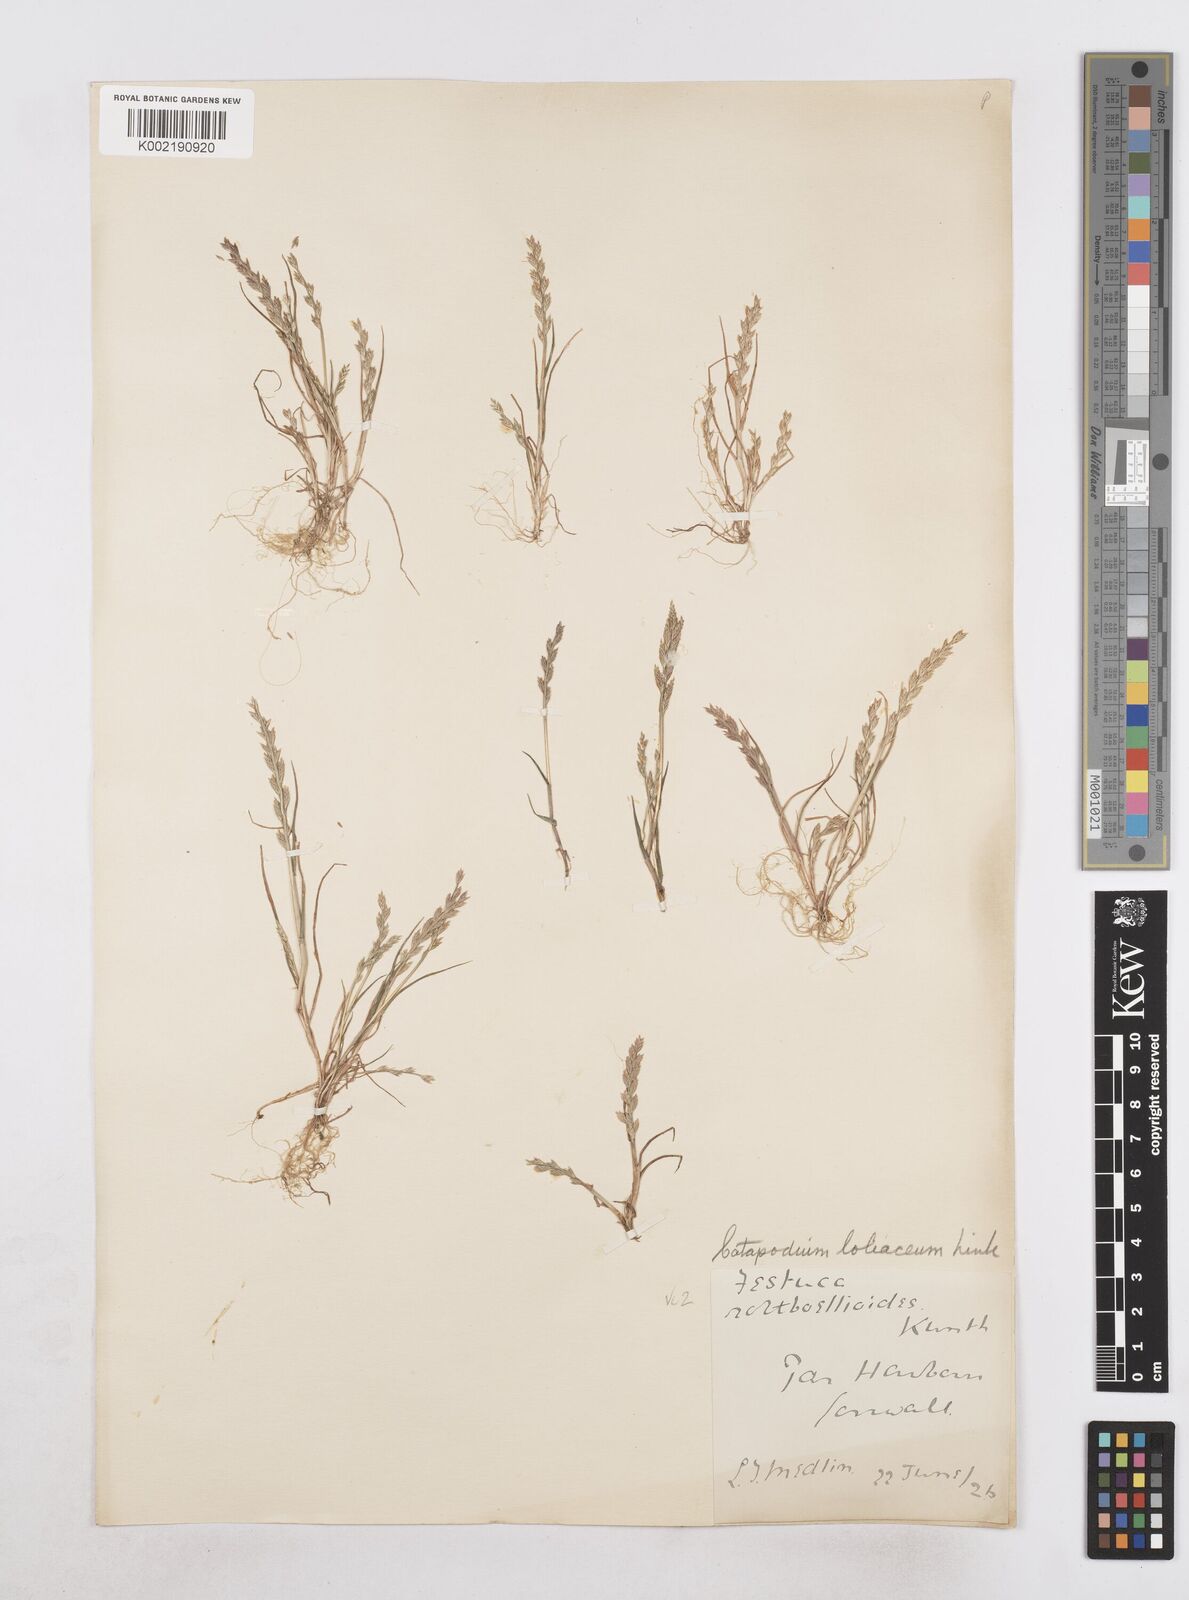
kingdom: Plantae
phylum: Tracheophyta
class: Liliopsida
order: Poales
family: Poaceae
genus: Catapodium
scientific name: Catapodium marinum
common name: Sea fern-grass
